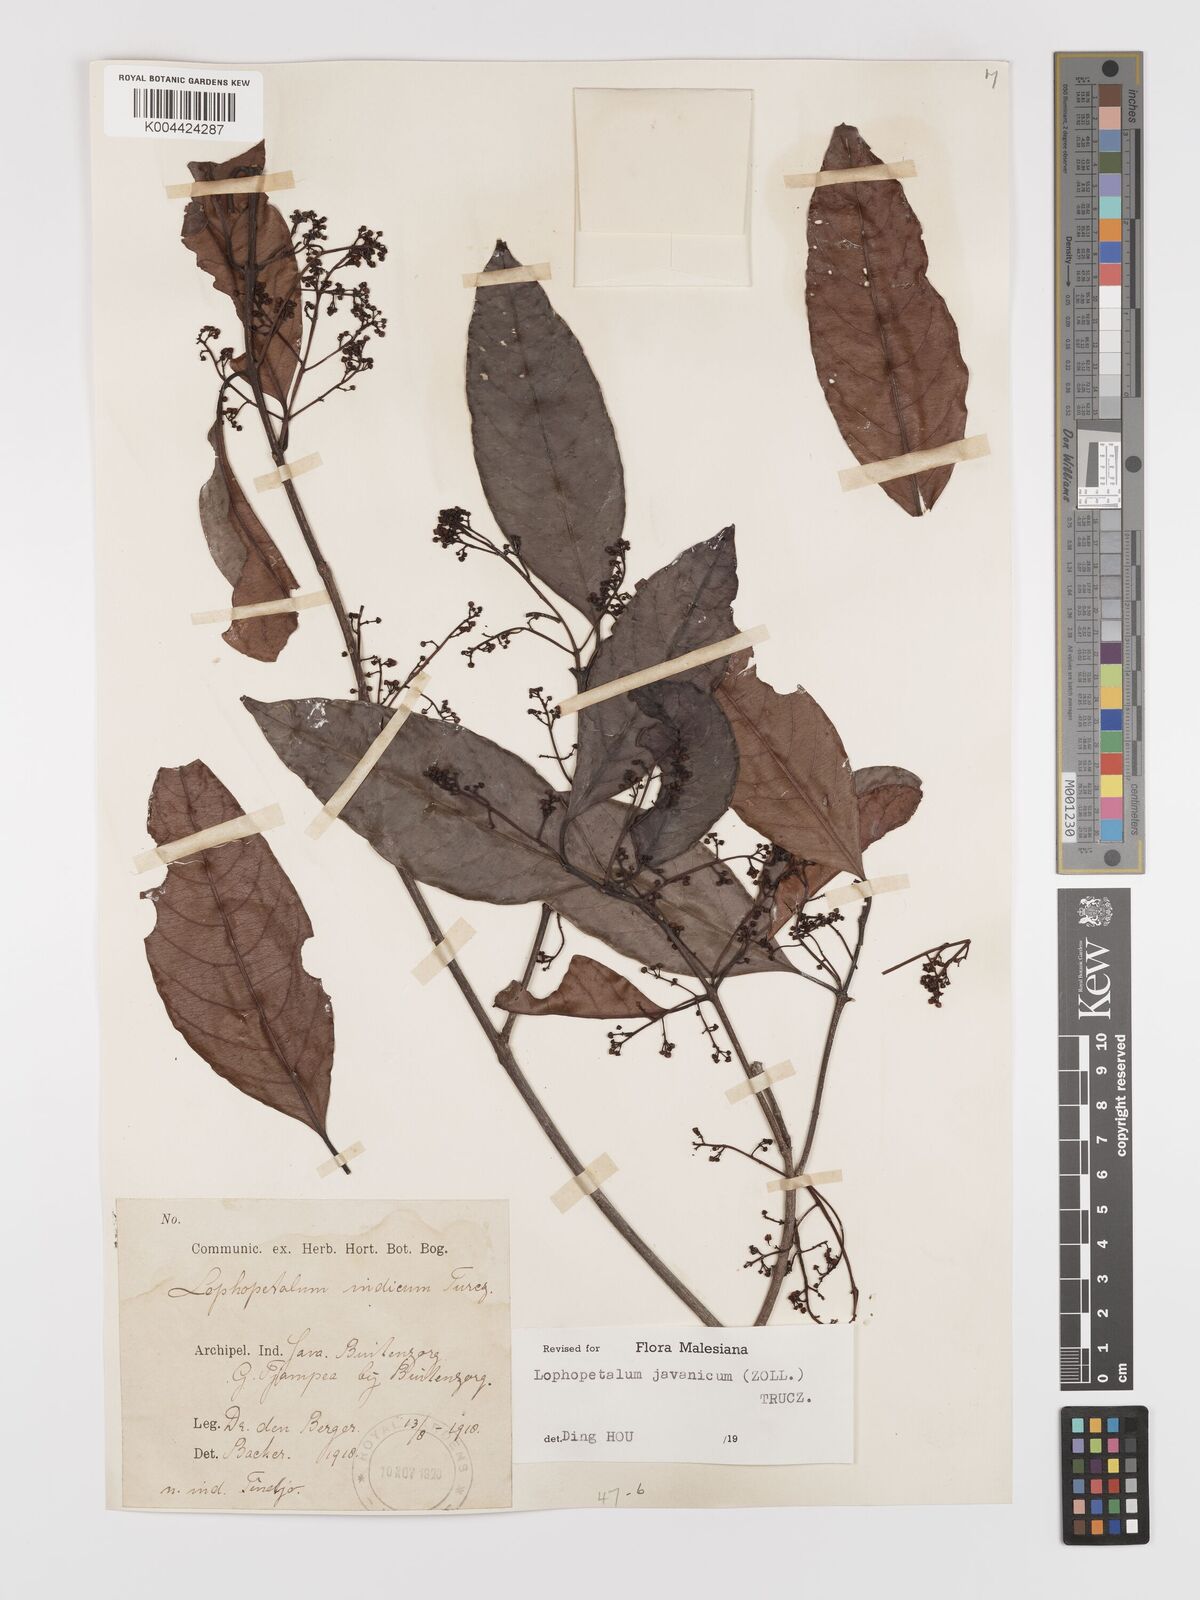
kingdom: Plantae
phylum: Tracheophyta
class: Magnoliopsida
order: Celastrales
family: Celastraceae
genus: Lophopetalum
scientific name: Lophopetalum javanicum
